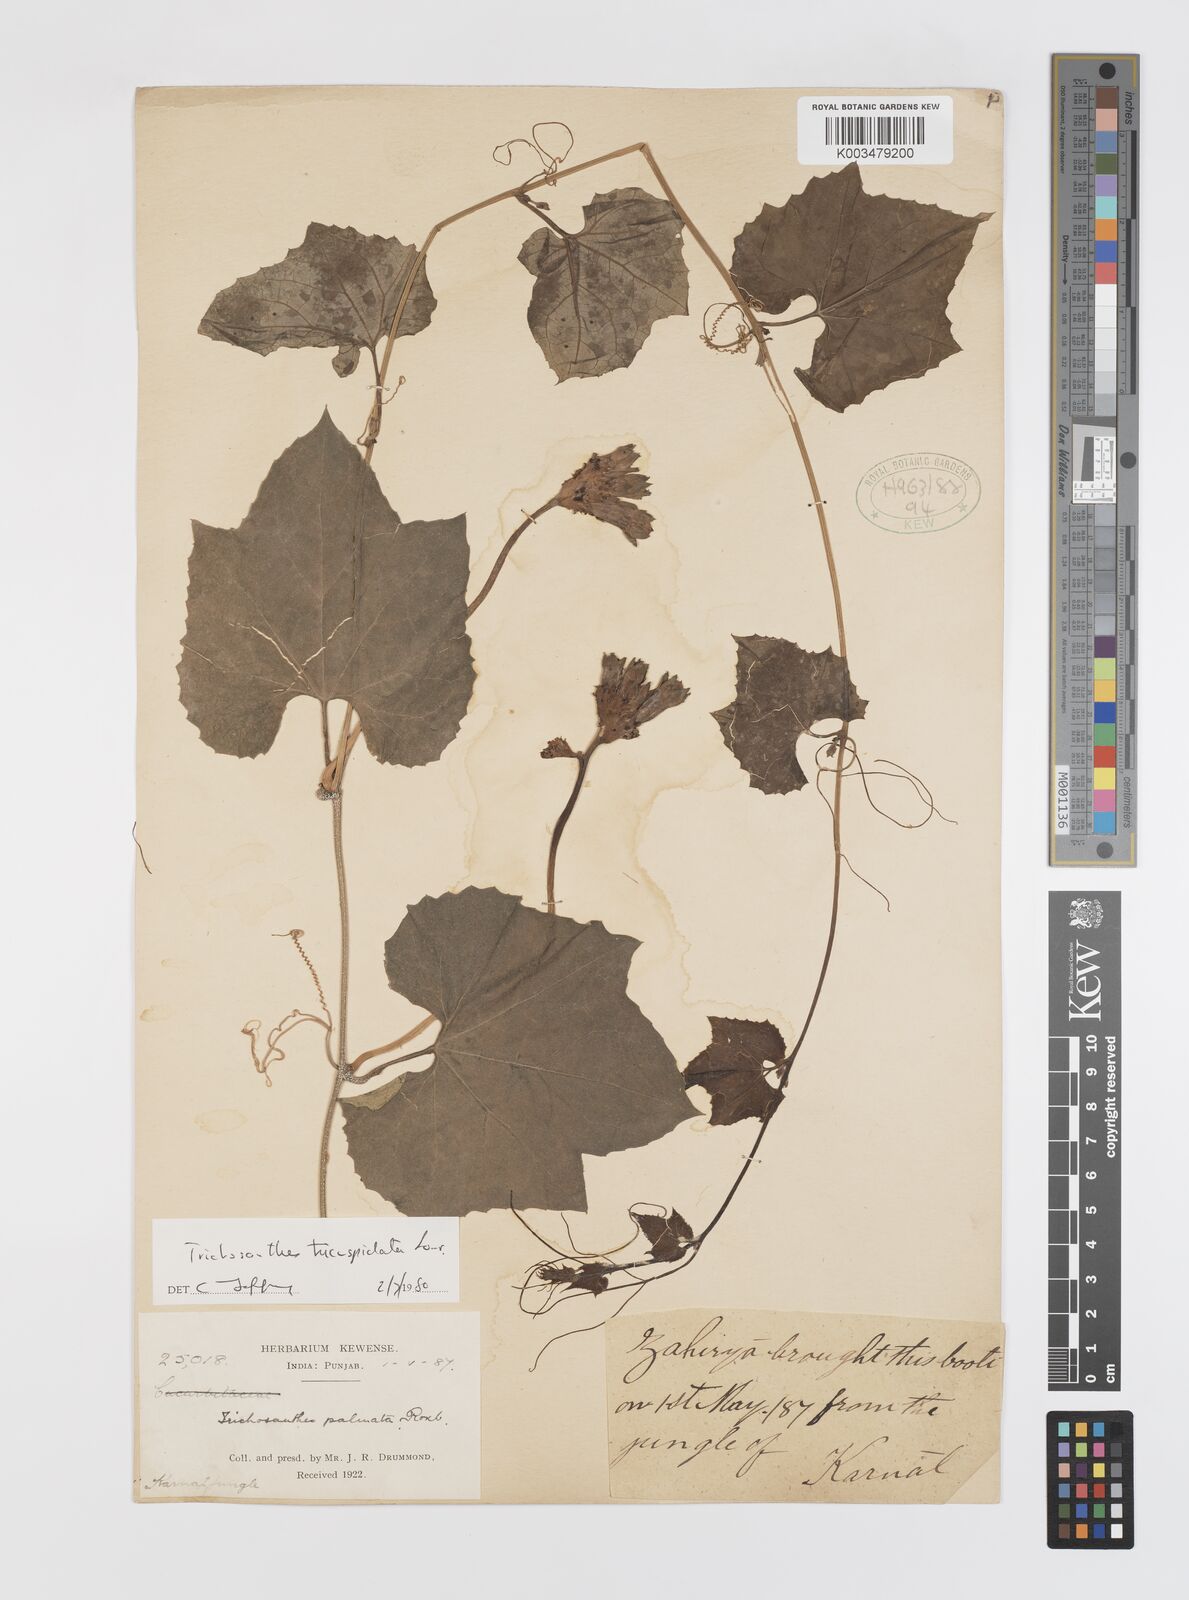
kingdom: Plantae
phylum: Tracheophyta
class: Magnoliopsida
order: Cucurbitales
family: Cucurbitaceae
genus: Trichosanthes
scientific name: Trichosanthes tricuspidata
